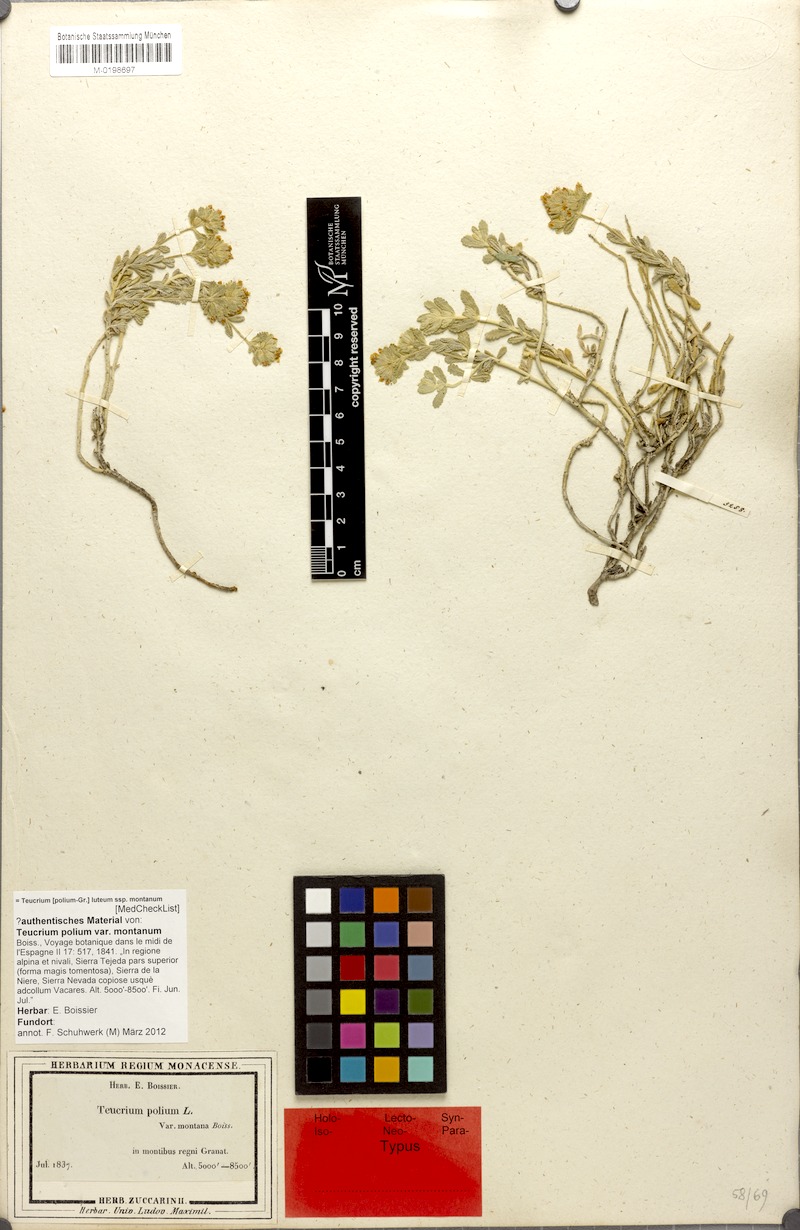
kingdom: Plantae
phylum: Tracheophyta
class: Magnoliopsida
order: Lamiales
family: Lamiaceae
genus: Teucrium
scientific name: Teucrium aureum
